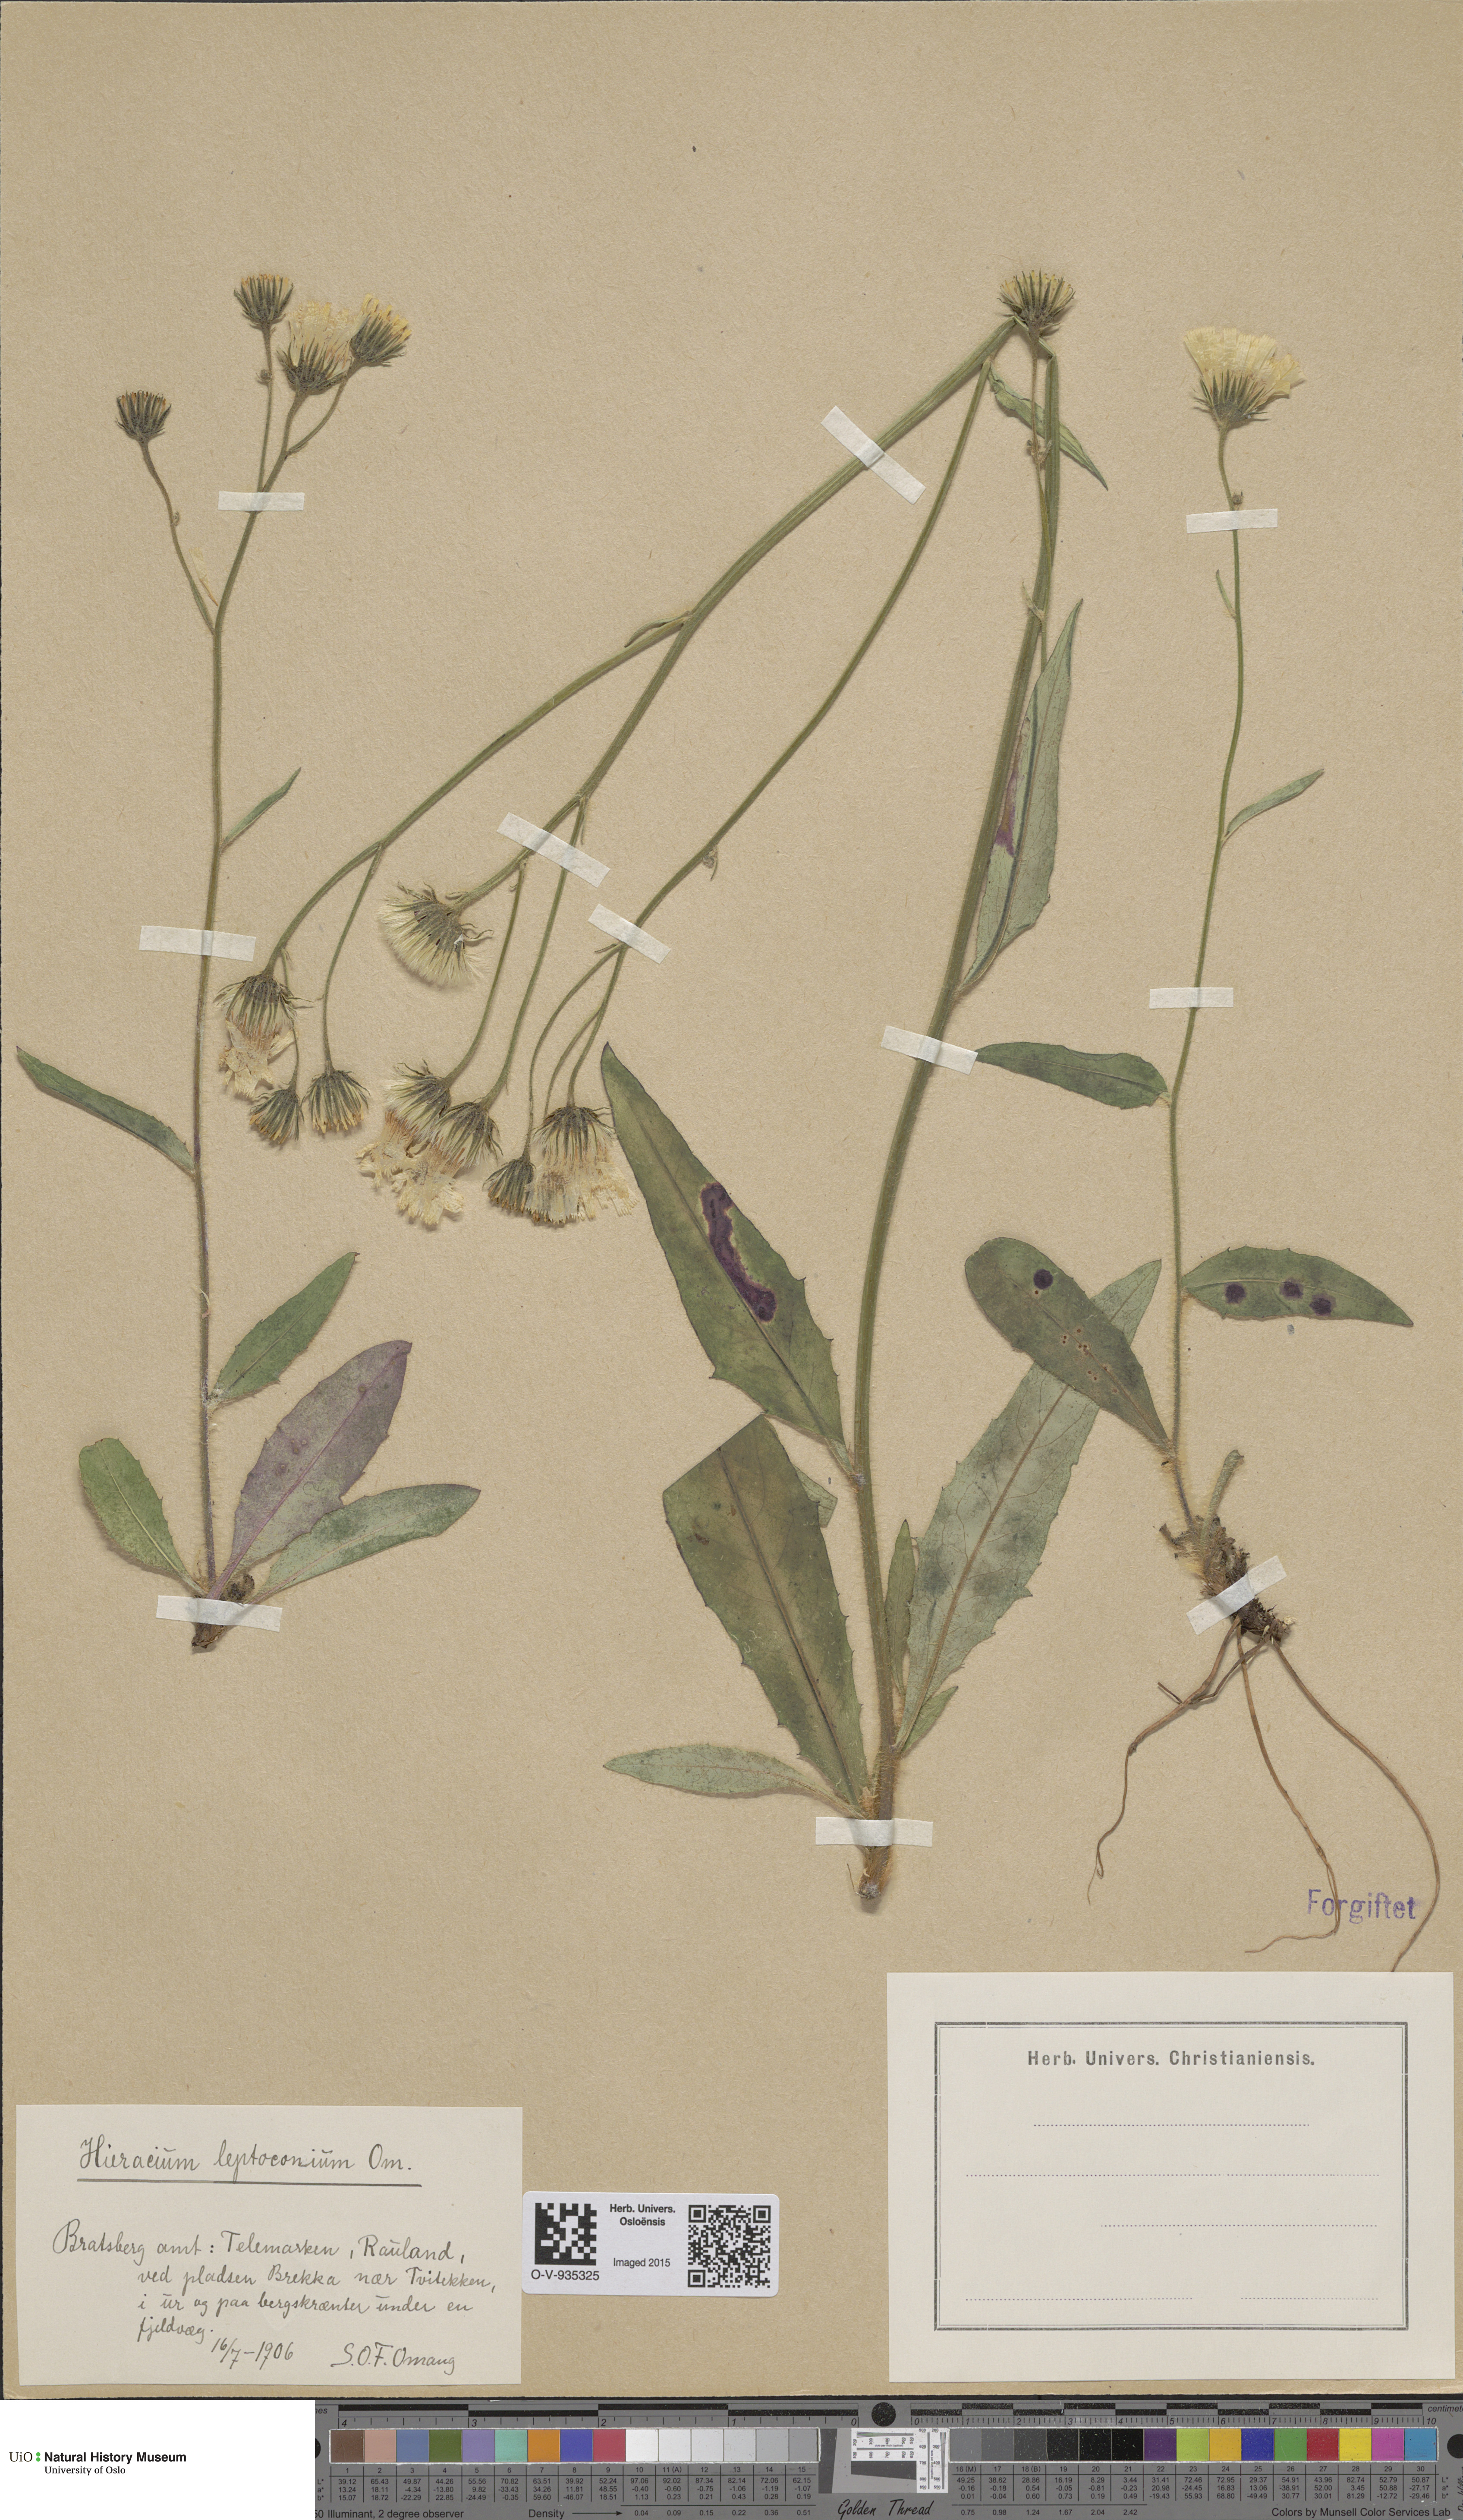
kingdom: Plantae
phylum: Tracheophyta
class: Magnoliopsida
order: Asterales
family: Asteraceae
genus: Hieracium
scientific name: Hieracium
